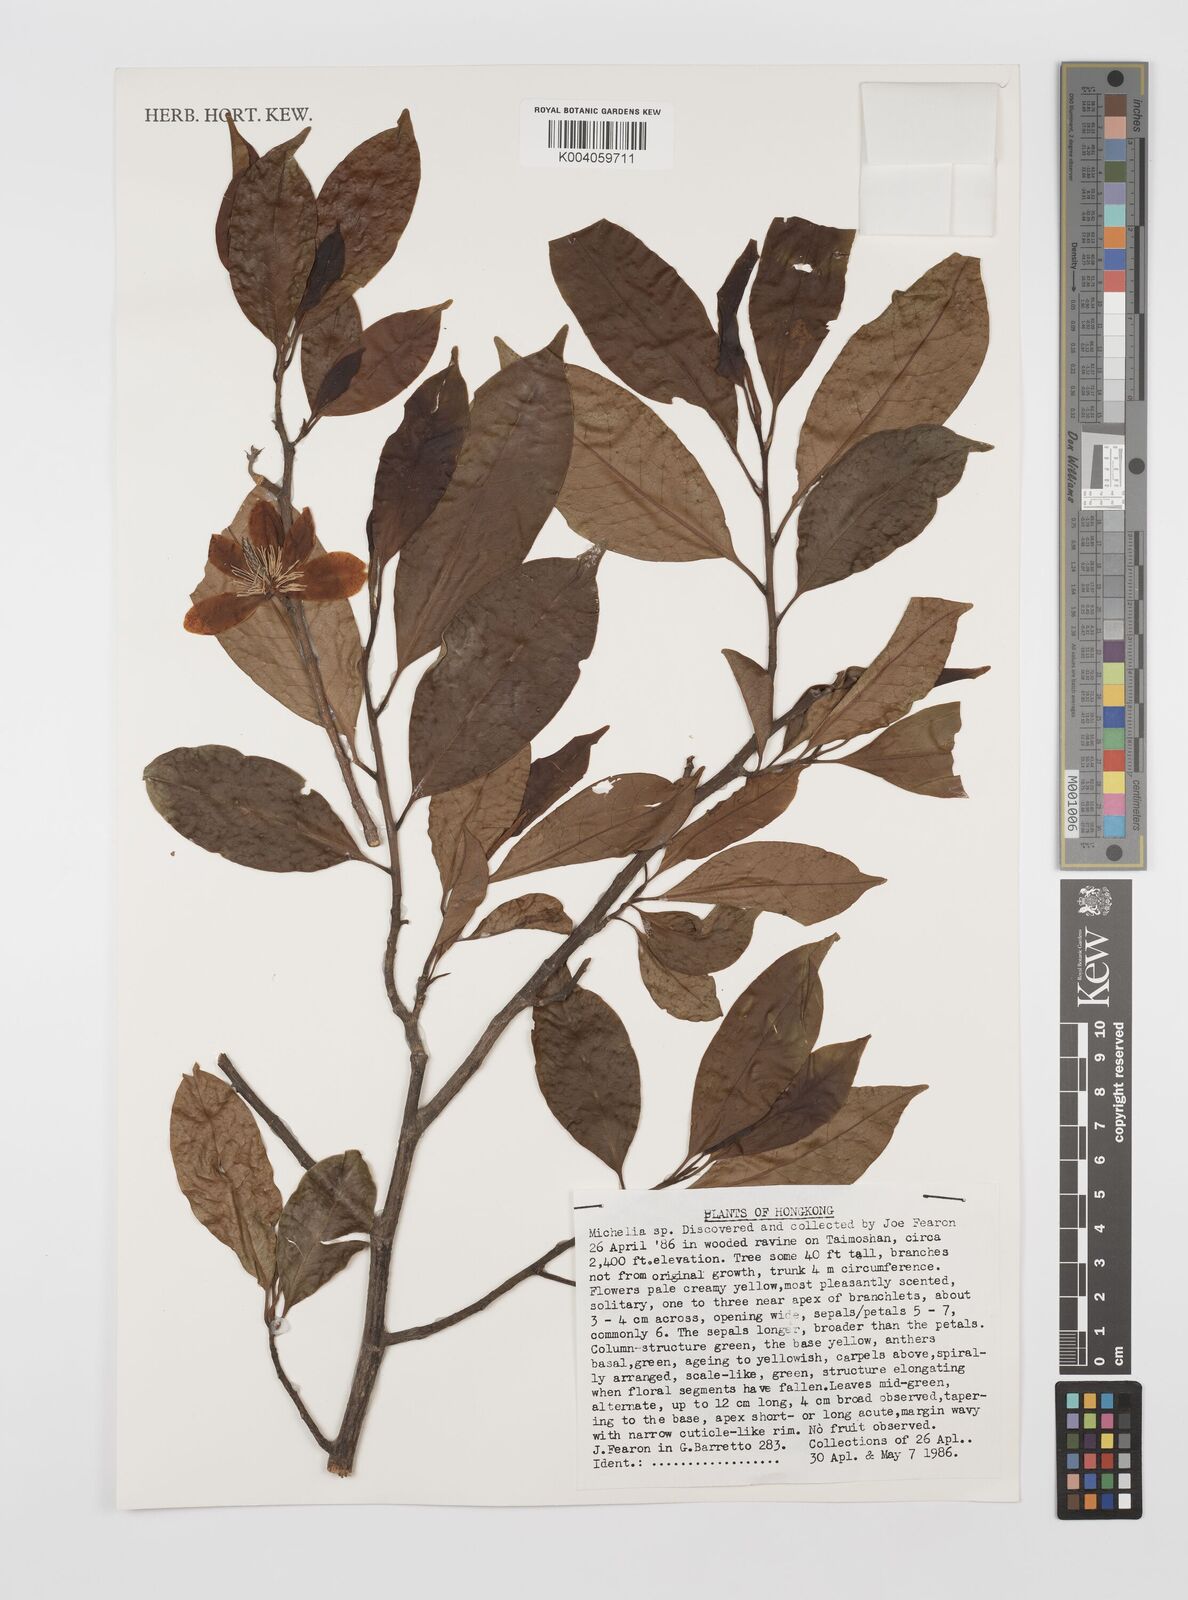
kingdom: Plantae
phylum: Tracheophyta
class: Magnoliopsida
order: Magnoliales
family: Magnoliaceae
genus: Magnolia
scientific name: Magnolia
